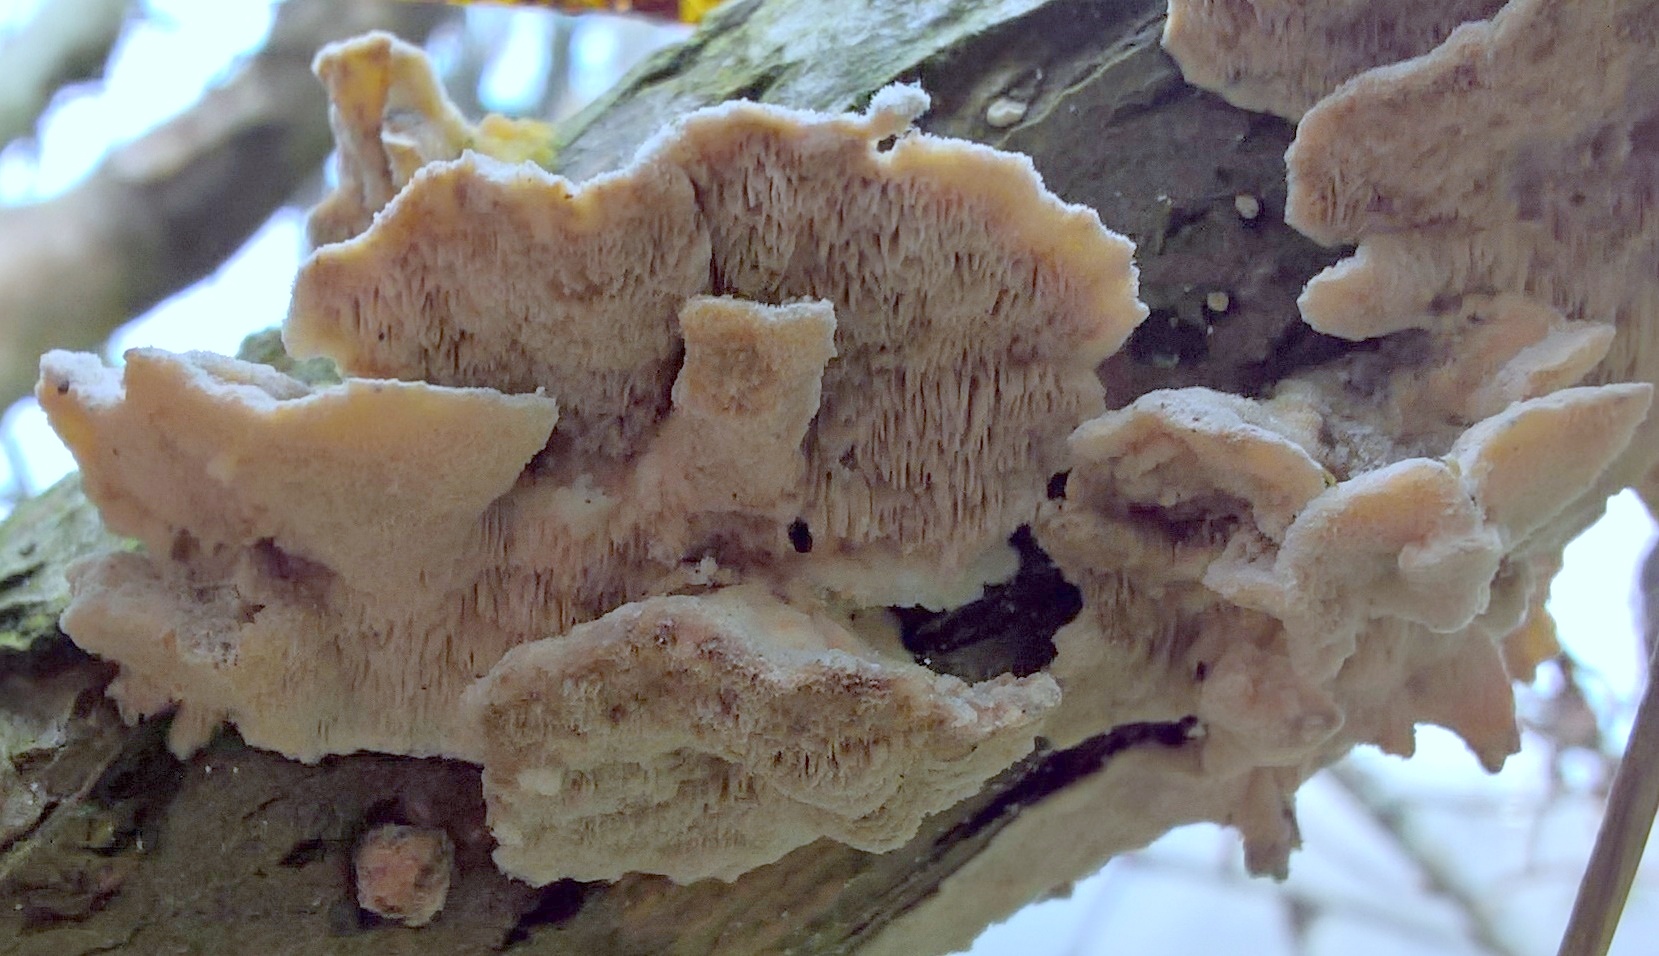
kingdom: Fungi
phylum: Basidiomycota
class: Agaricomycetes
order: Polyporales
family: Polyporaceae
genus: Trametes
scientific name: Trametes
